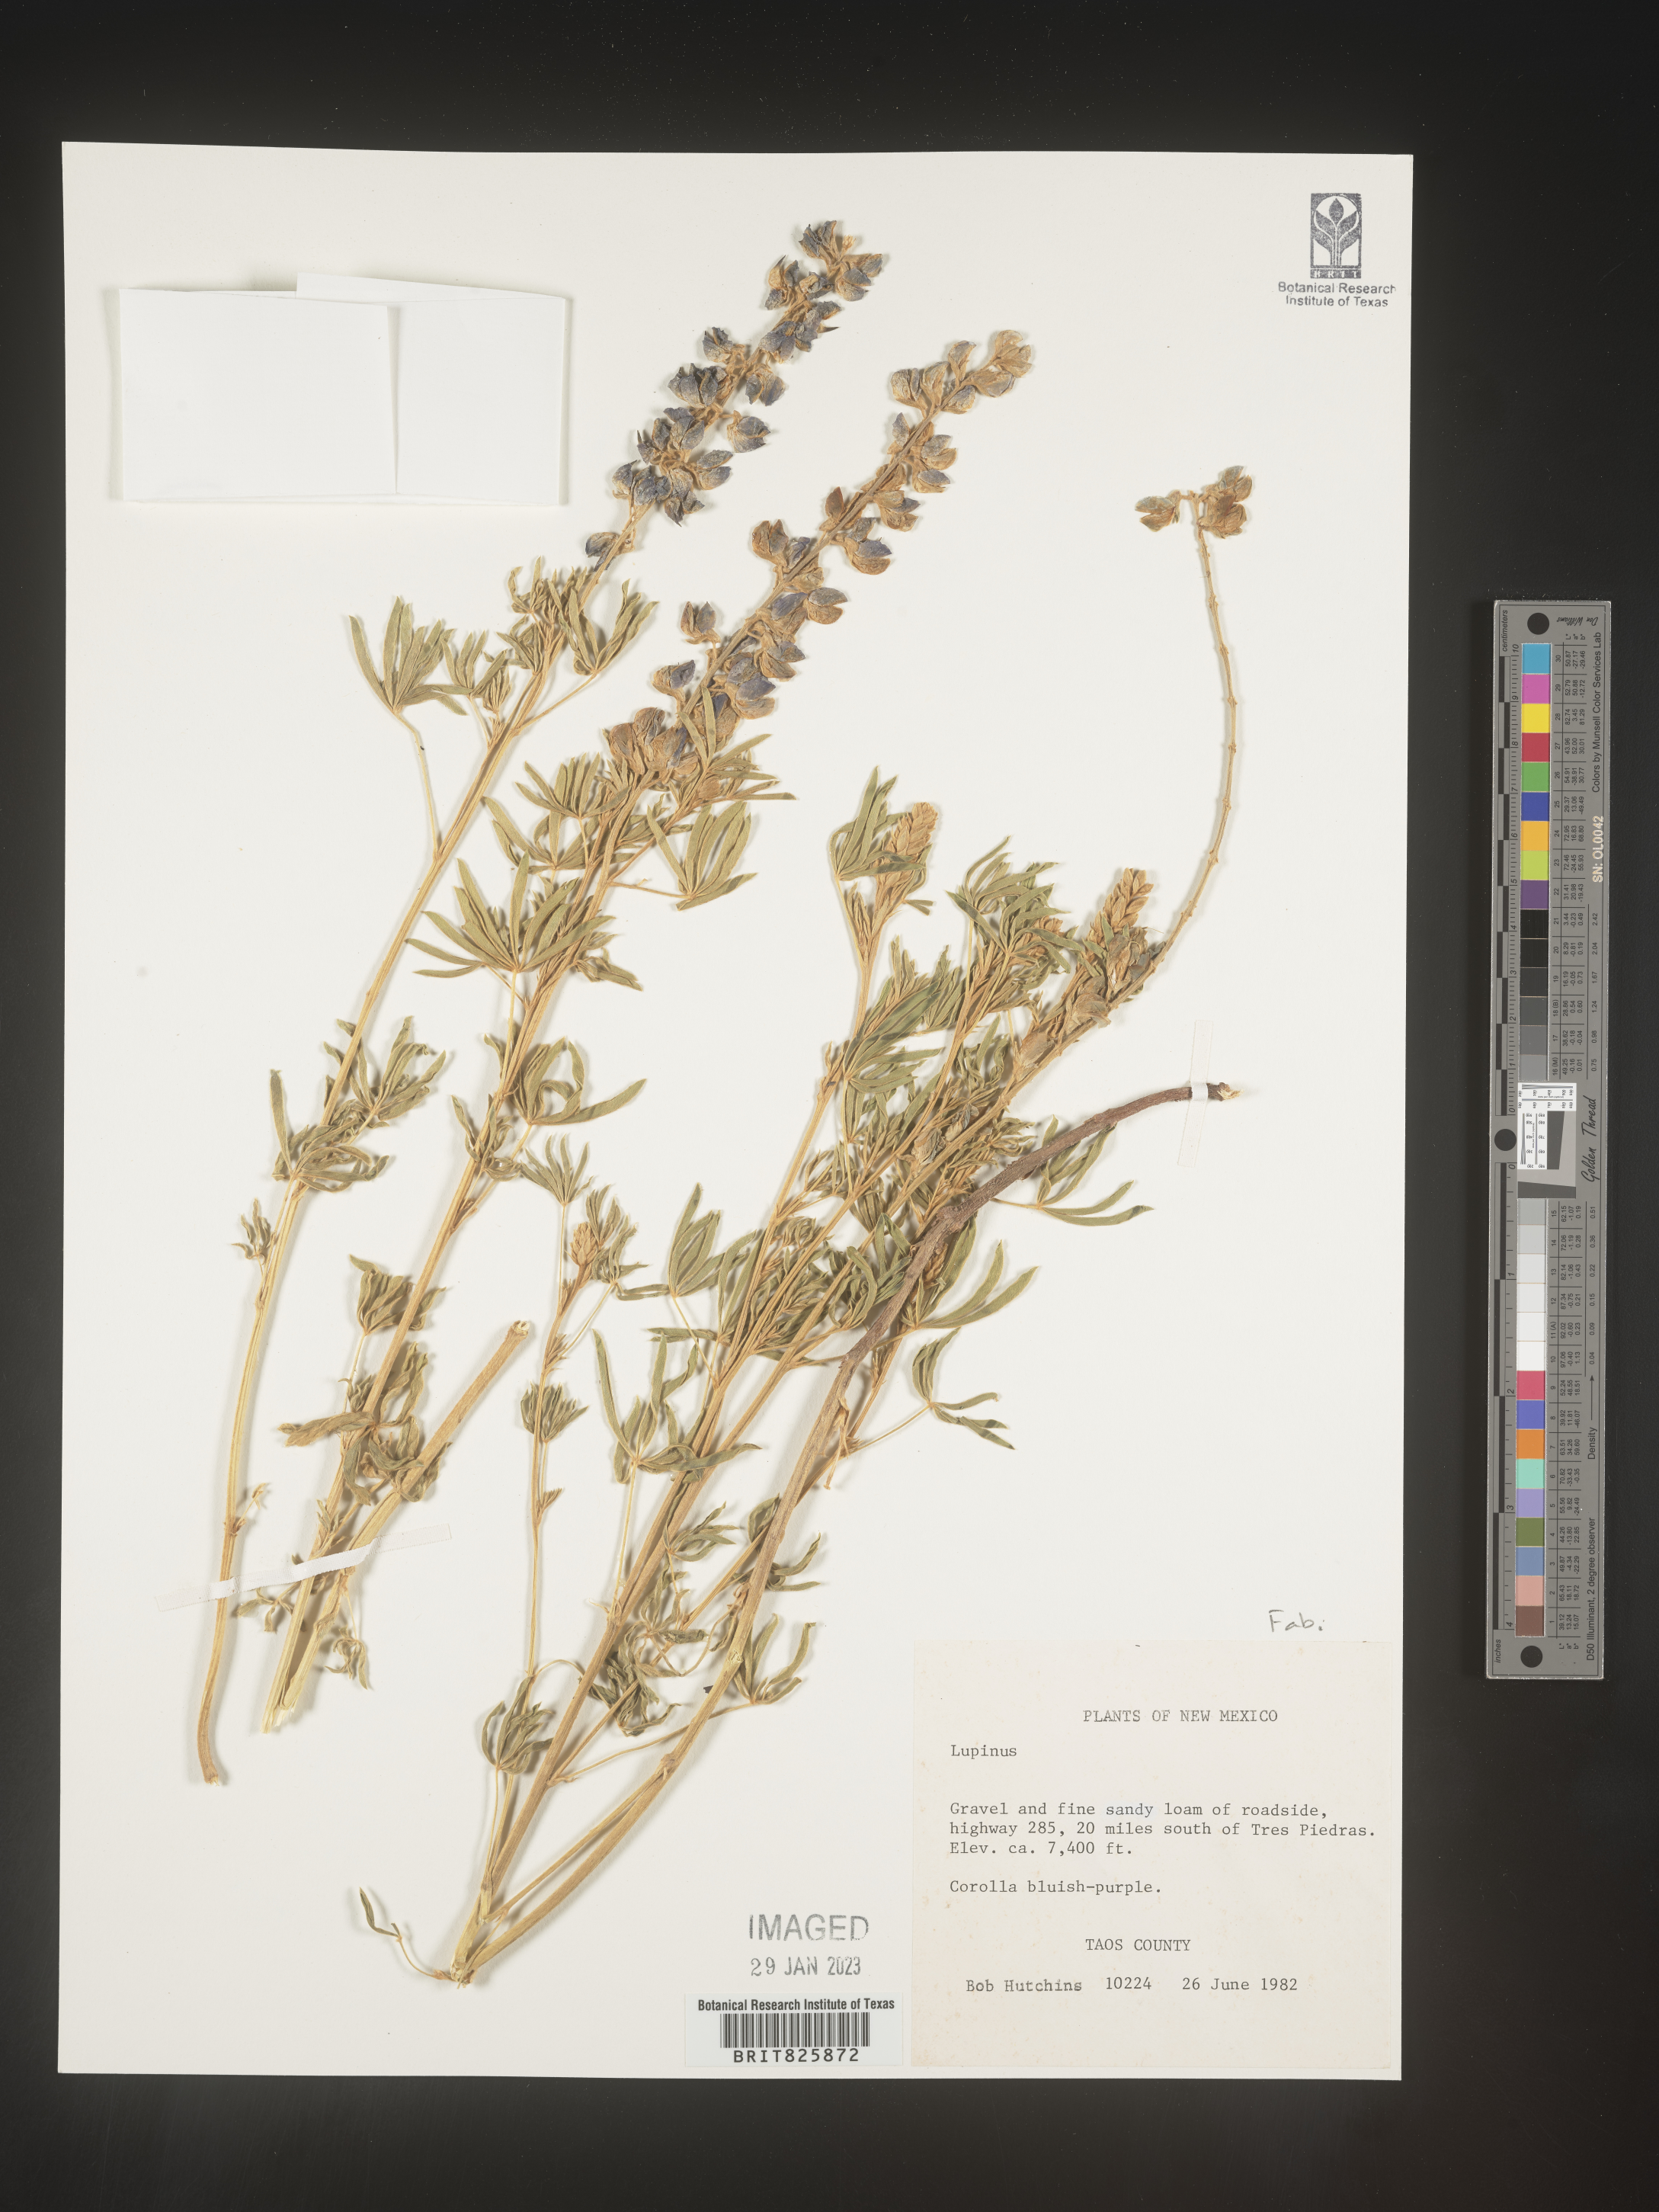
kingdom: Plantae
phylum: Tracheophyta
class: Magnoliopsida
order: Fabales
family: Fabaceae
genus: Lupinus
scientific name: Lupinus
